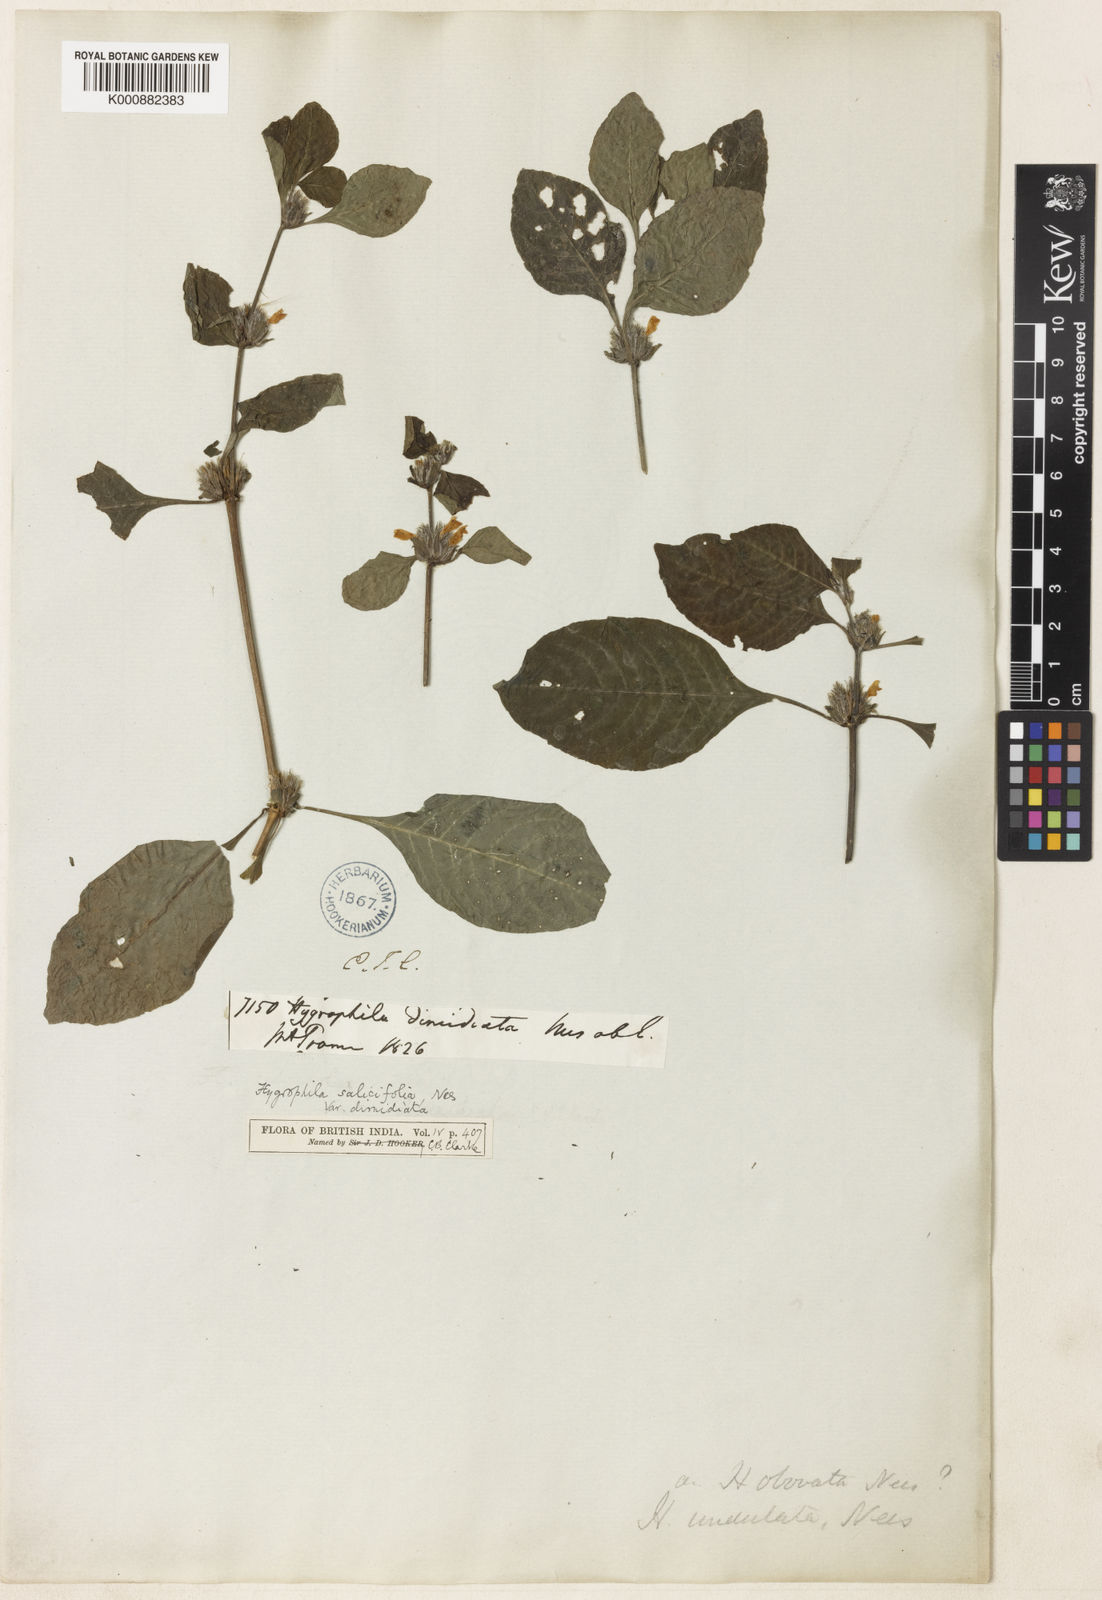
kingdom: Plantae
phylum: Tracheophyta
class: Magnoliopsida
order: Lamiales
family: Acanthaceae
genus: Hygrophila
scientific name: Hygrophila ringens
